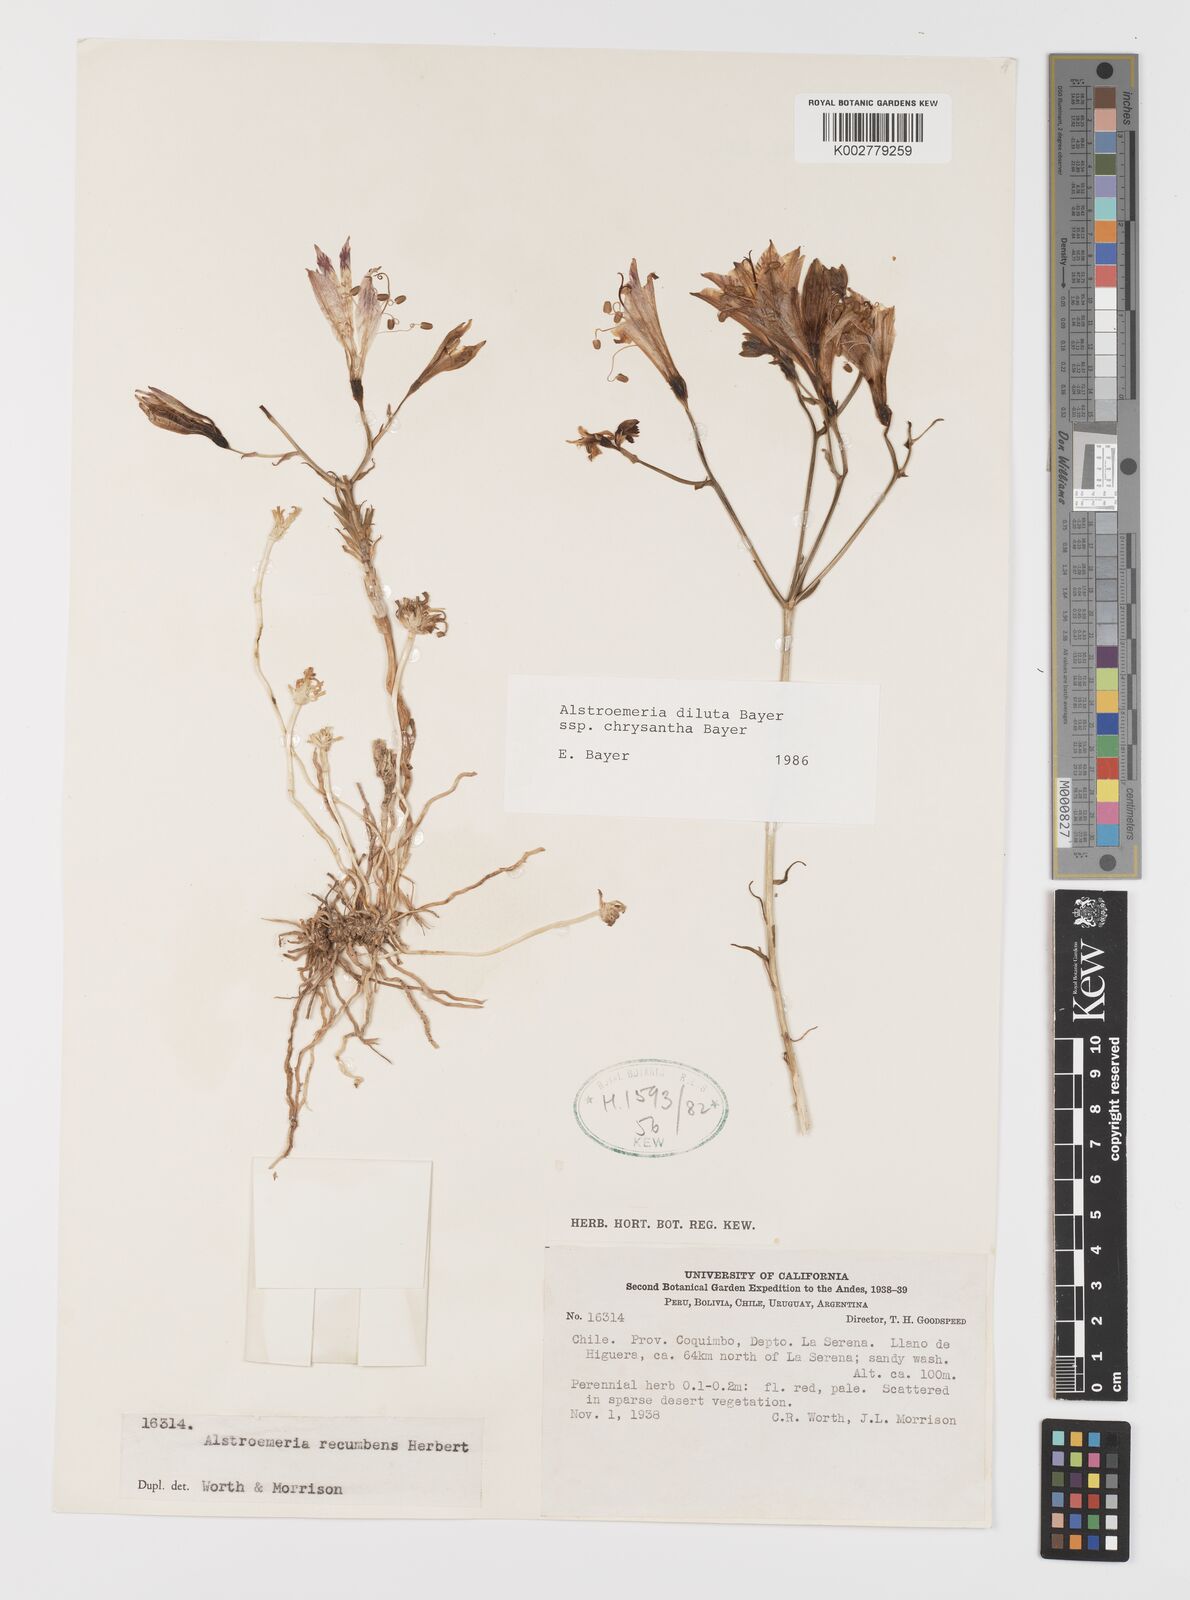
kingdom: Plantae
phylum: Tracheophyta
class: Liliopsida
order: Liliales
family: Alstroemeriaceae
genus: Alstroemeria
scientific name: Alstroemeria chrysantha
